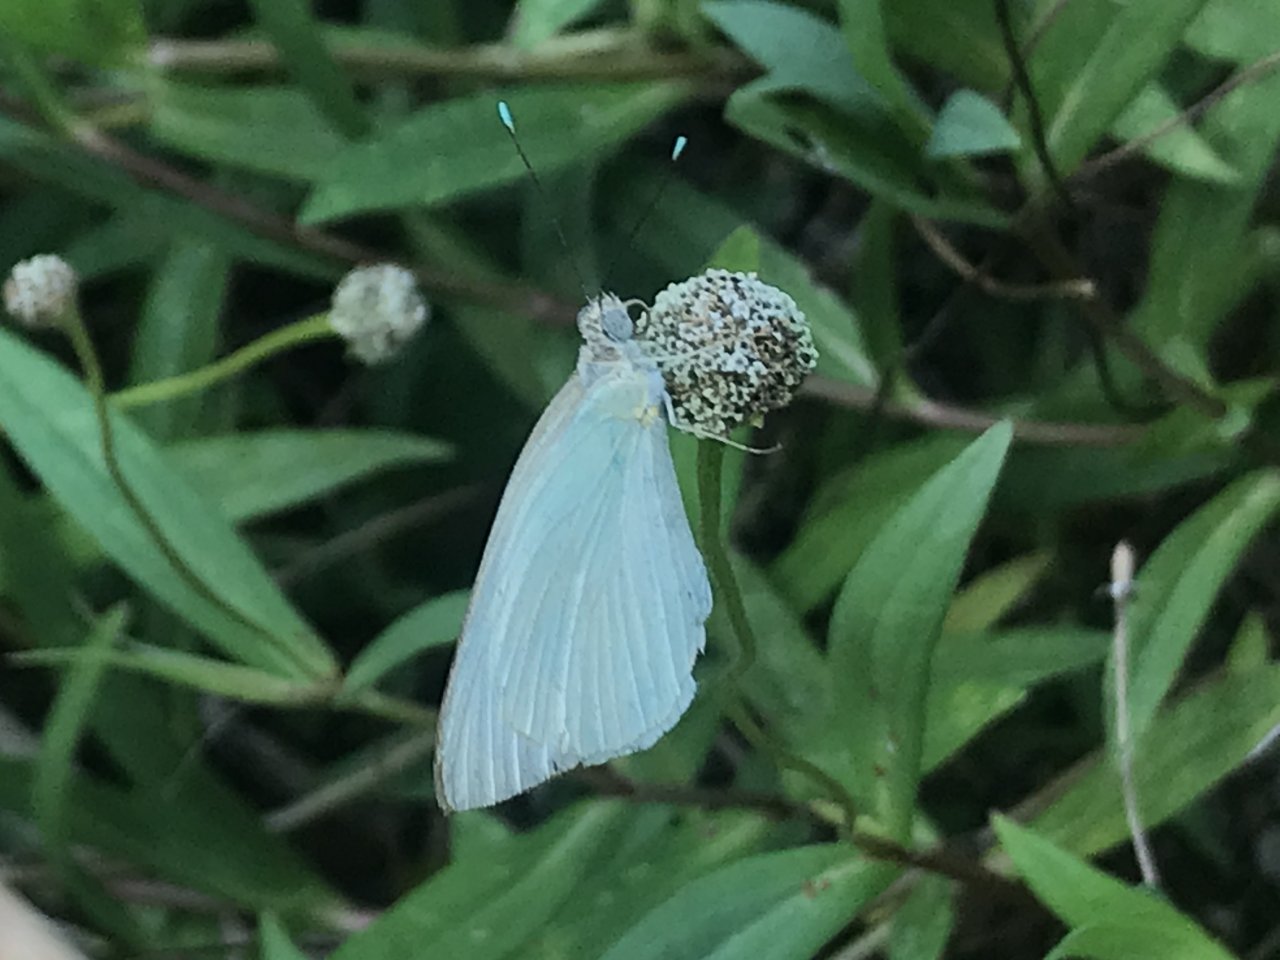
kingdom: Animalia
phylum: Arthropoda
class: Insecta
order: Lepidoptera
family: Pieridae
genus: Ascia
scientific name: Ascia monuste
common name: Great Southern White
